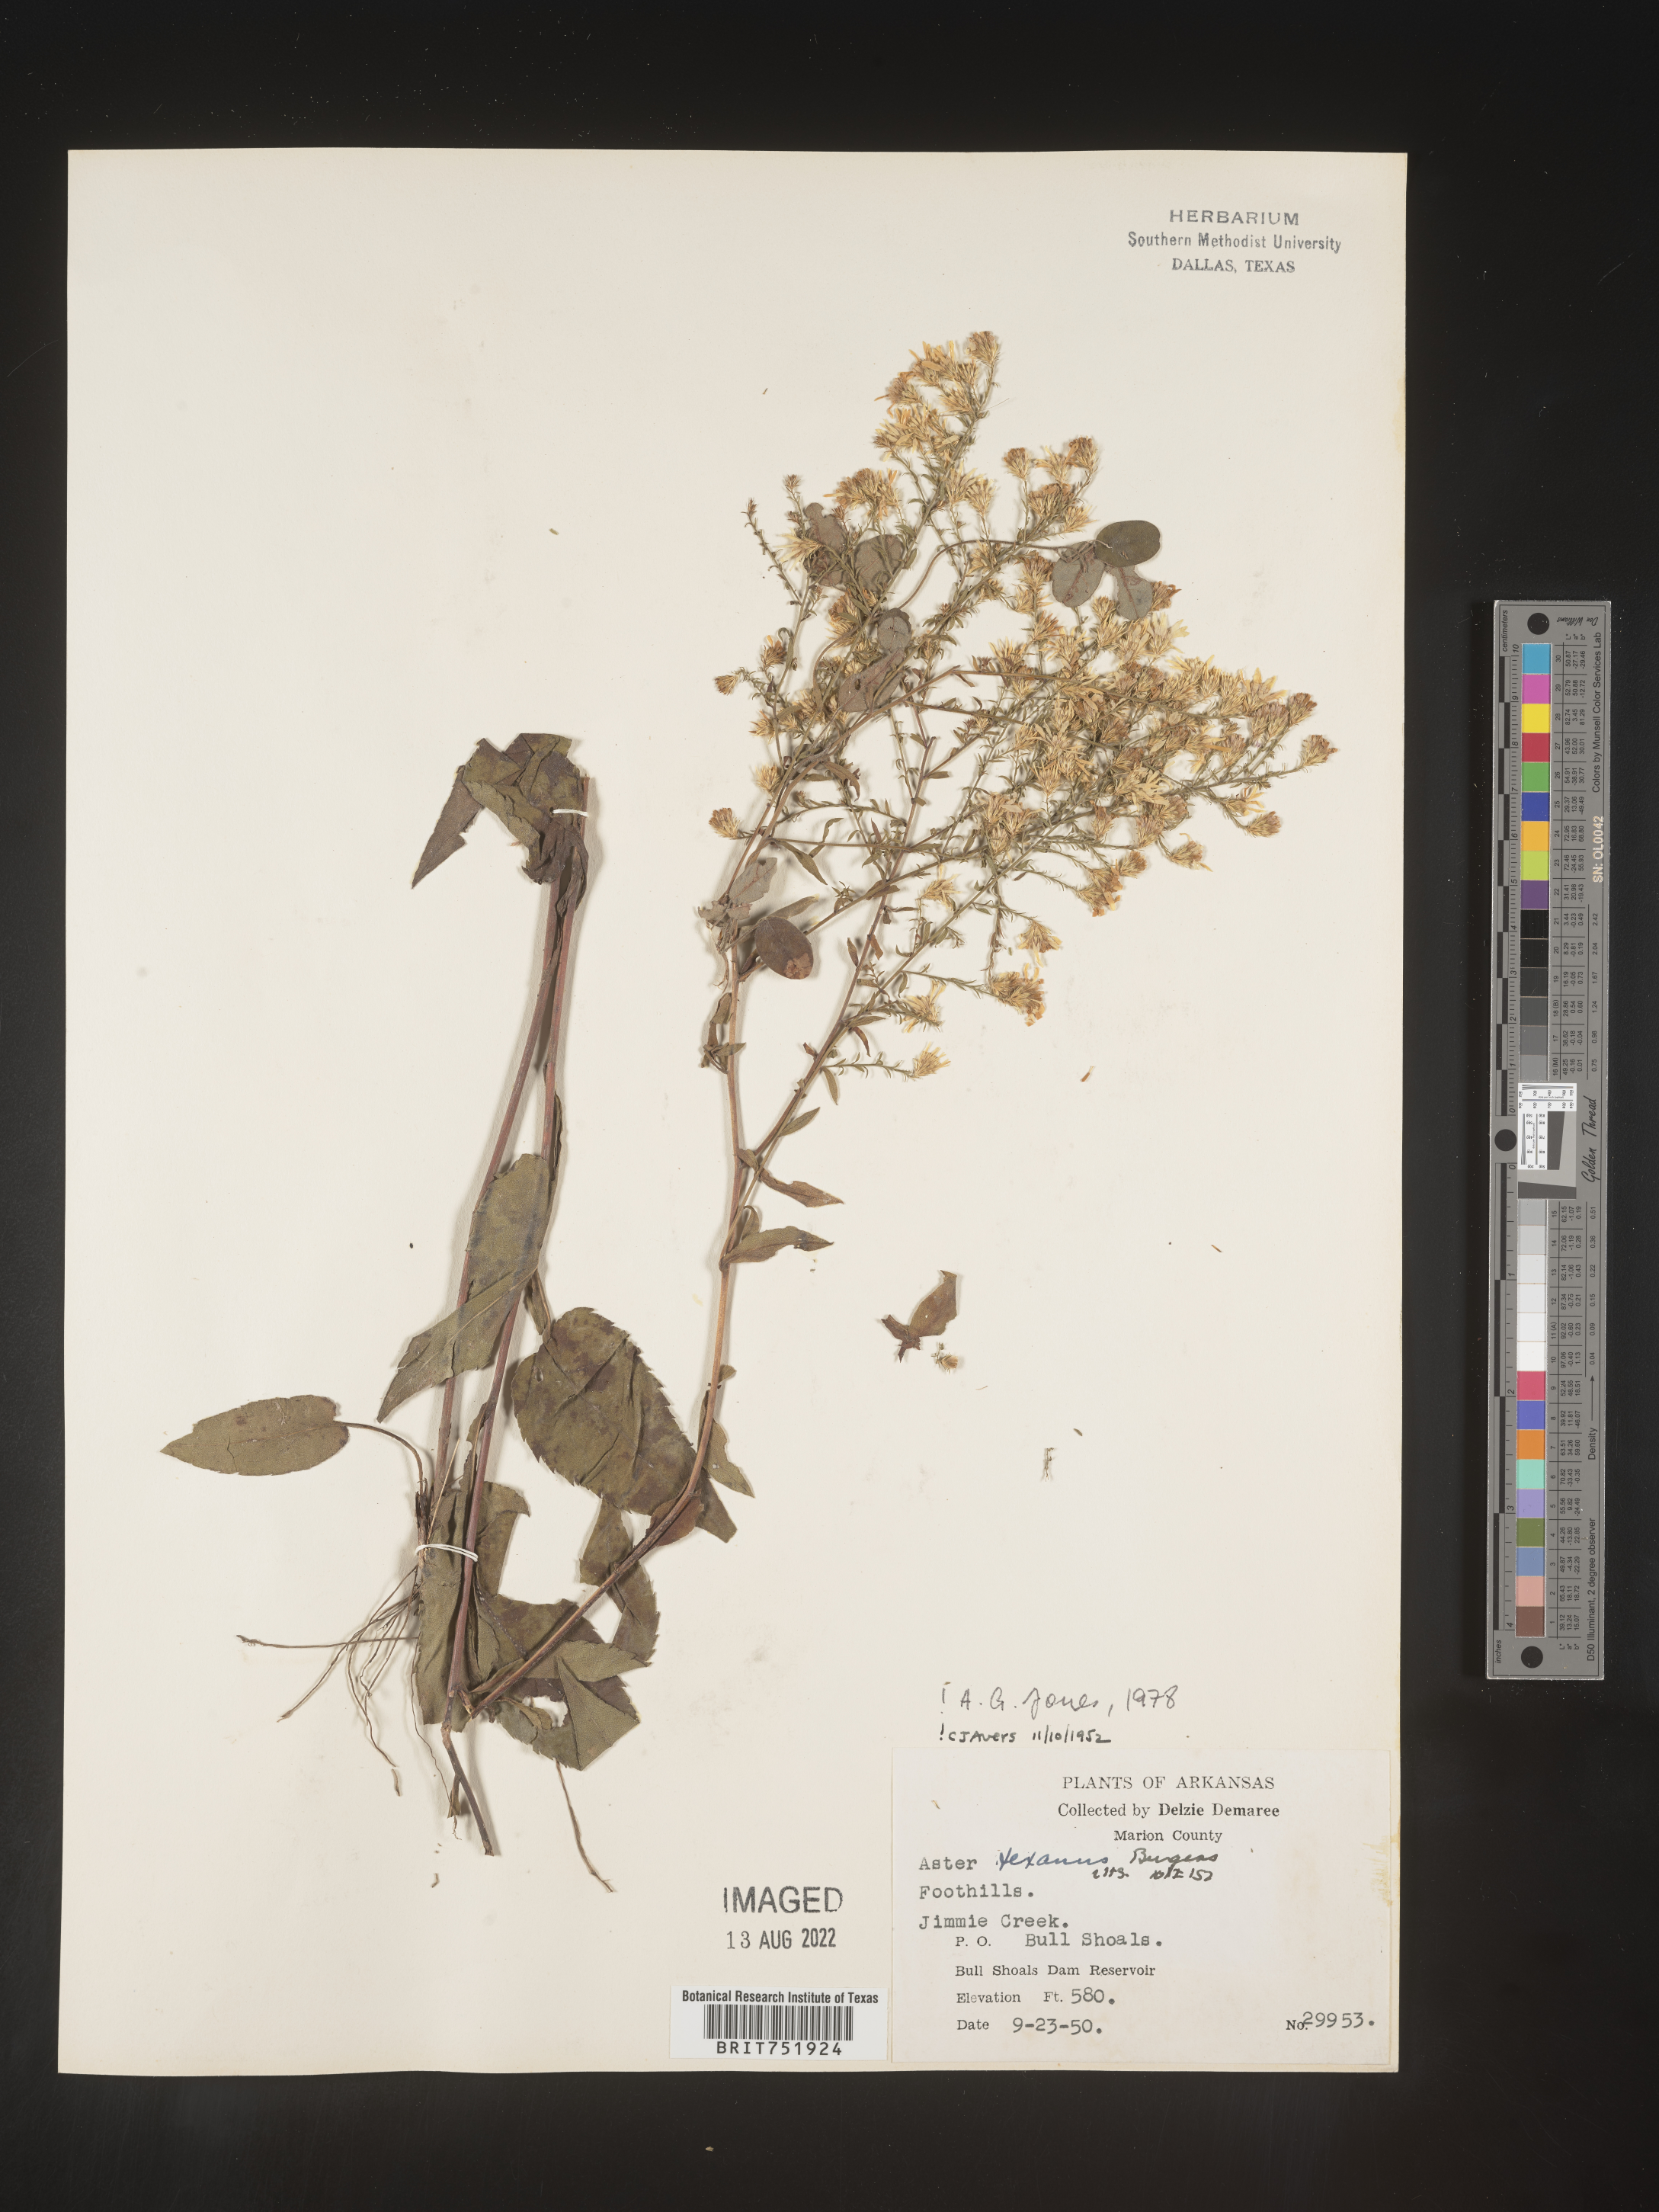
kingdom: Plantae
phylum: Tracheophyta
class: Magnoliopsida
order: Asterales
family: Asteraceae
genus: Symphyotrichum
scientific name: Symphyotrichum drummondii
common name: Drummond's aster
